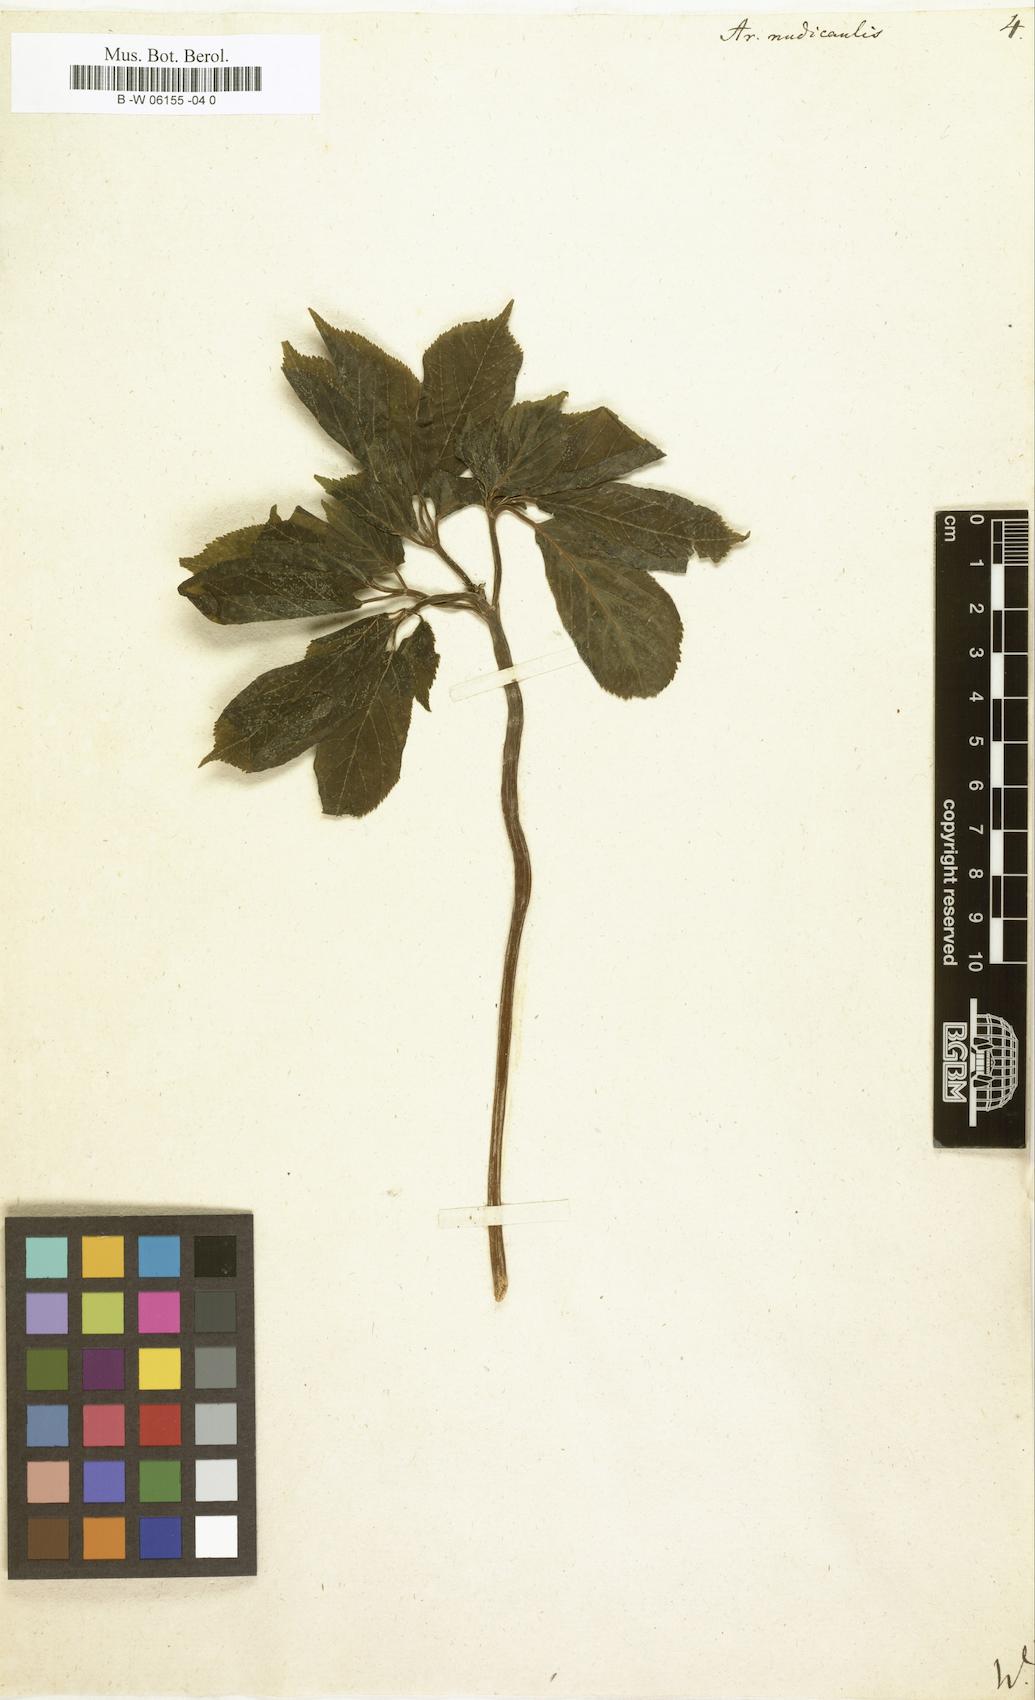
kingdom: Plantae
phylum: Tracheophyta
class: Magnoliopsida
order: Apiales
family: Araliaceae
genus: Aralia
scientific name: Aralia nudicaulis
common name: Wild sarsaparilla
